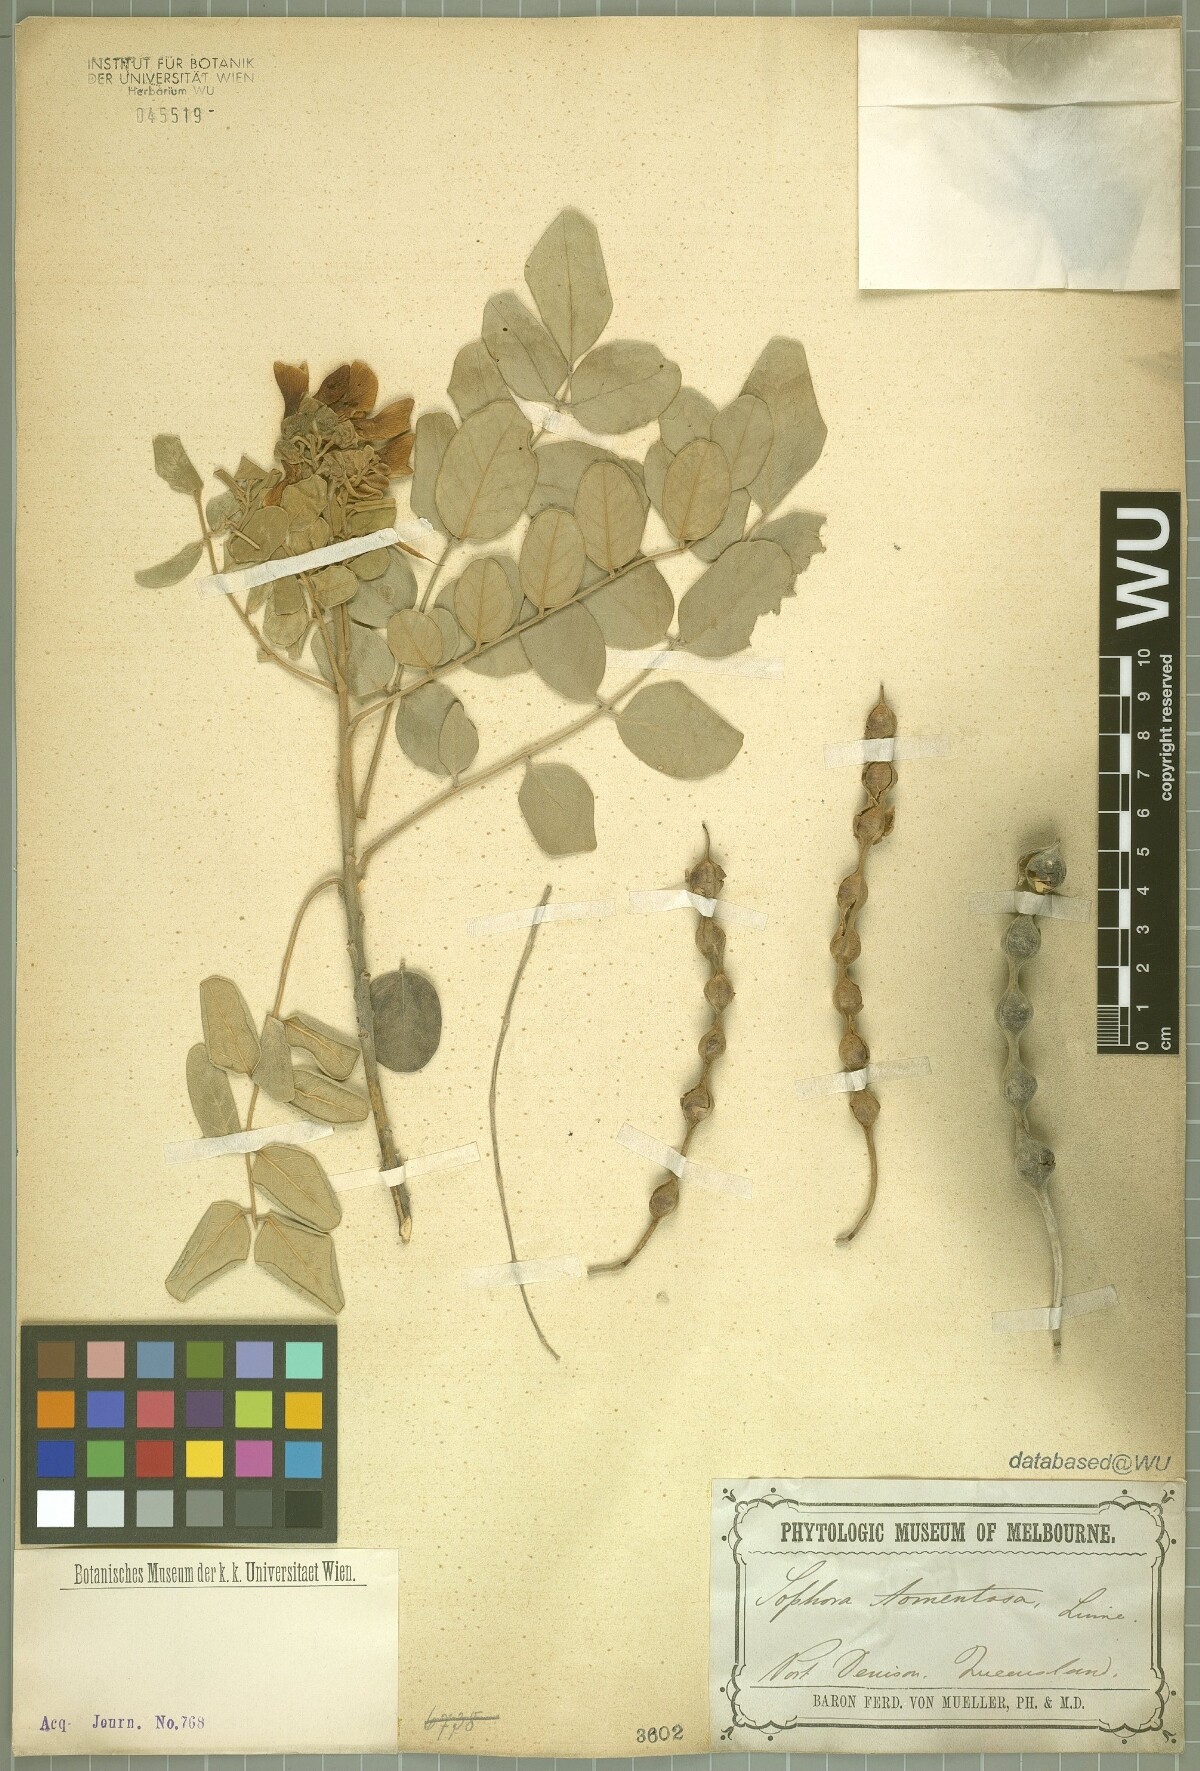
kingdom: Plantae
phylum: Tracheophyta
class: Magnoliopsida
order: Fabales
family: Fabaceae
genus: Sophora
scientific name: Sophora tomentosa
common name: Yellow necklacepod
